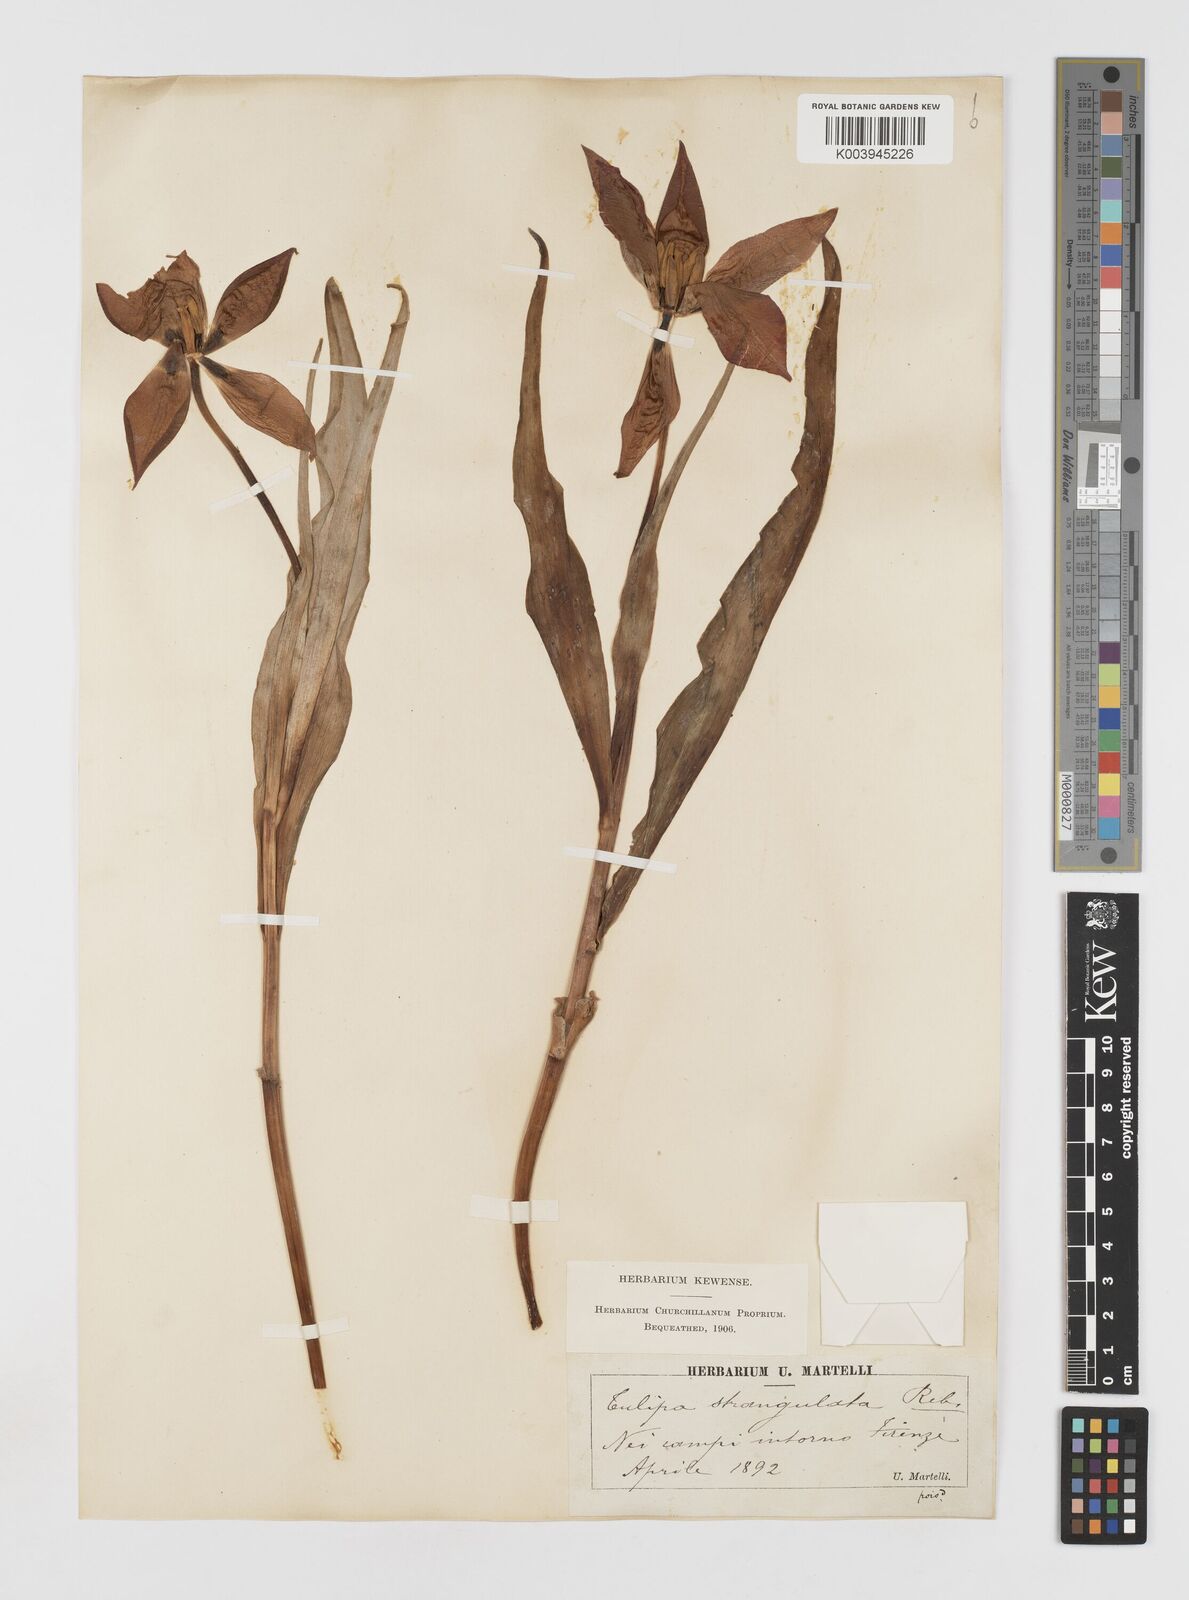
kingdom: Plantae
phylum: Tracheophyta
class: Liliopsida
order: Liliales
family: Liliaceae
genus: Tulipa
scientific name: Tulipa
